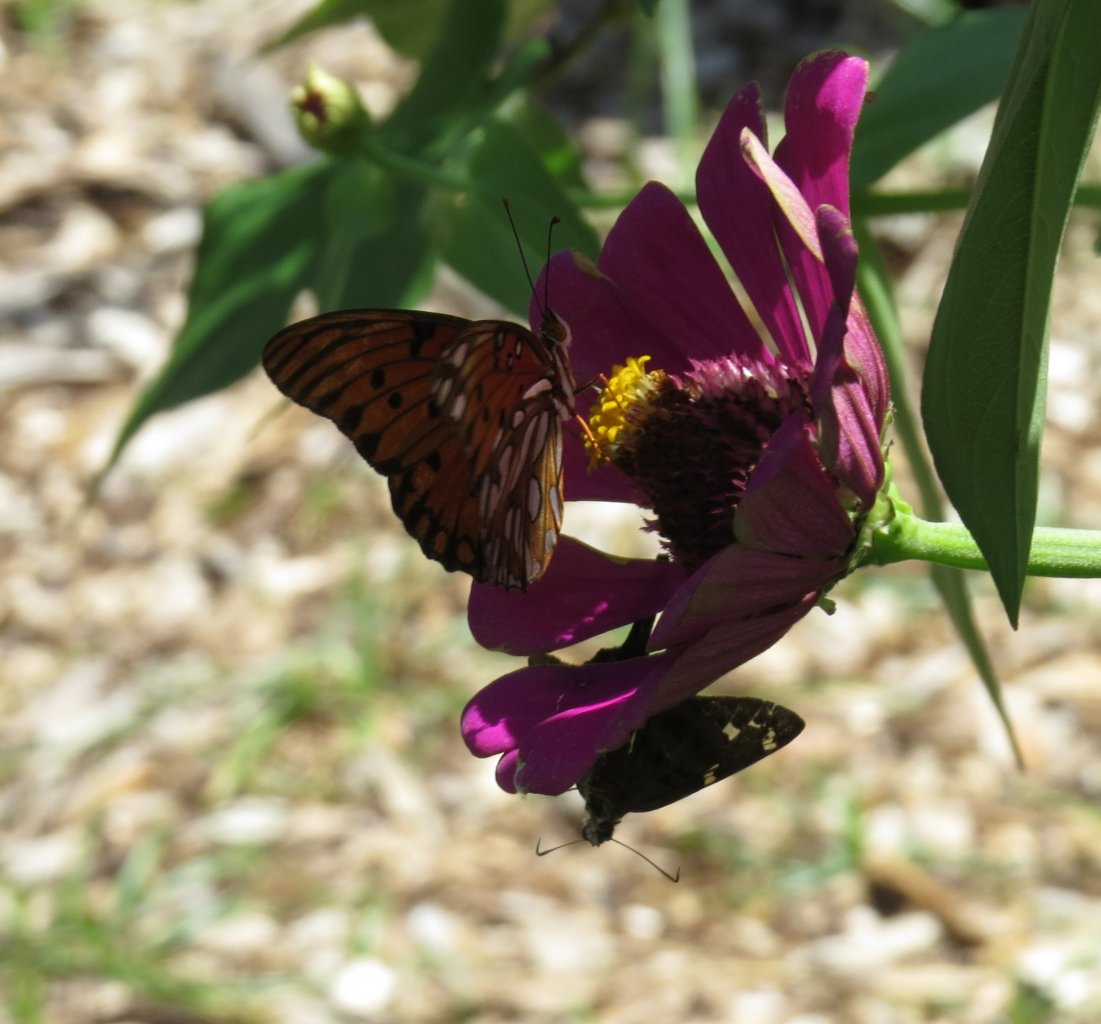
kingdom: Animalia
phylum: Arthropoda
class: Insecta
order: Lepidoptera
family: Nymphalidae
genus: Dione
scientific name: Dione vanillae
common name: Gulf Fritillary
